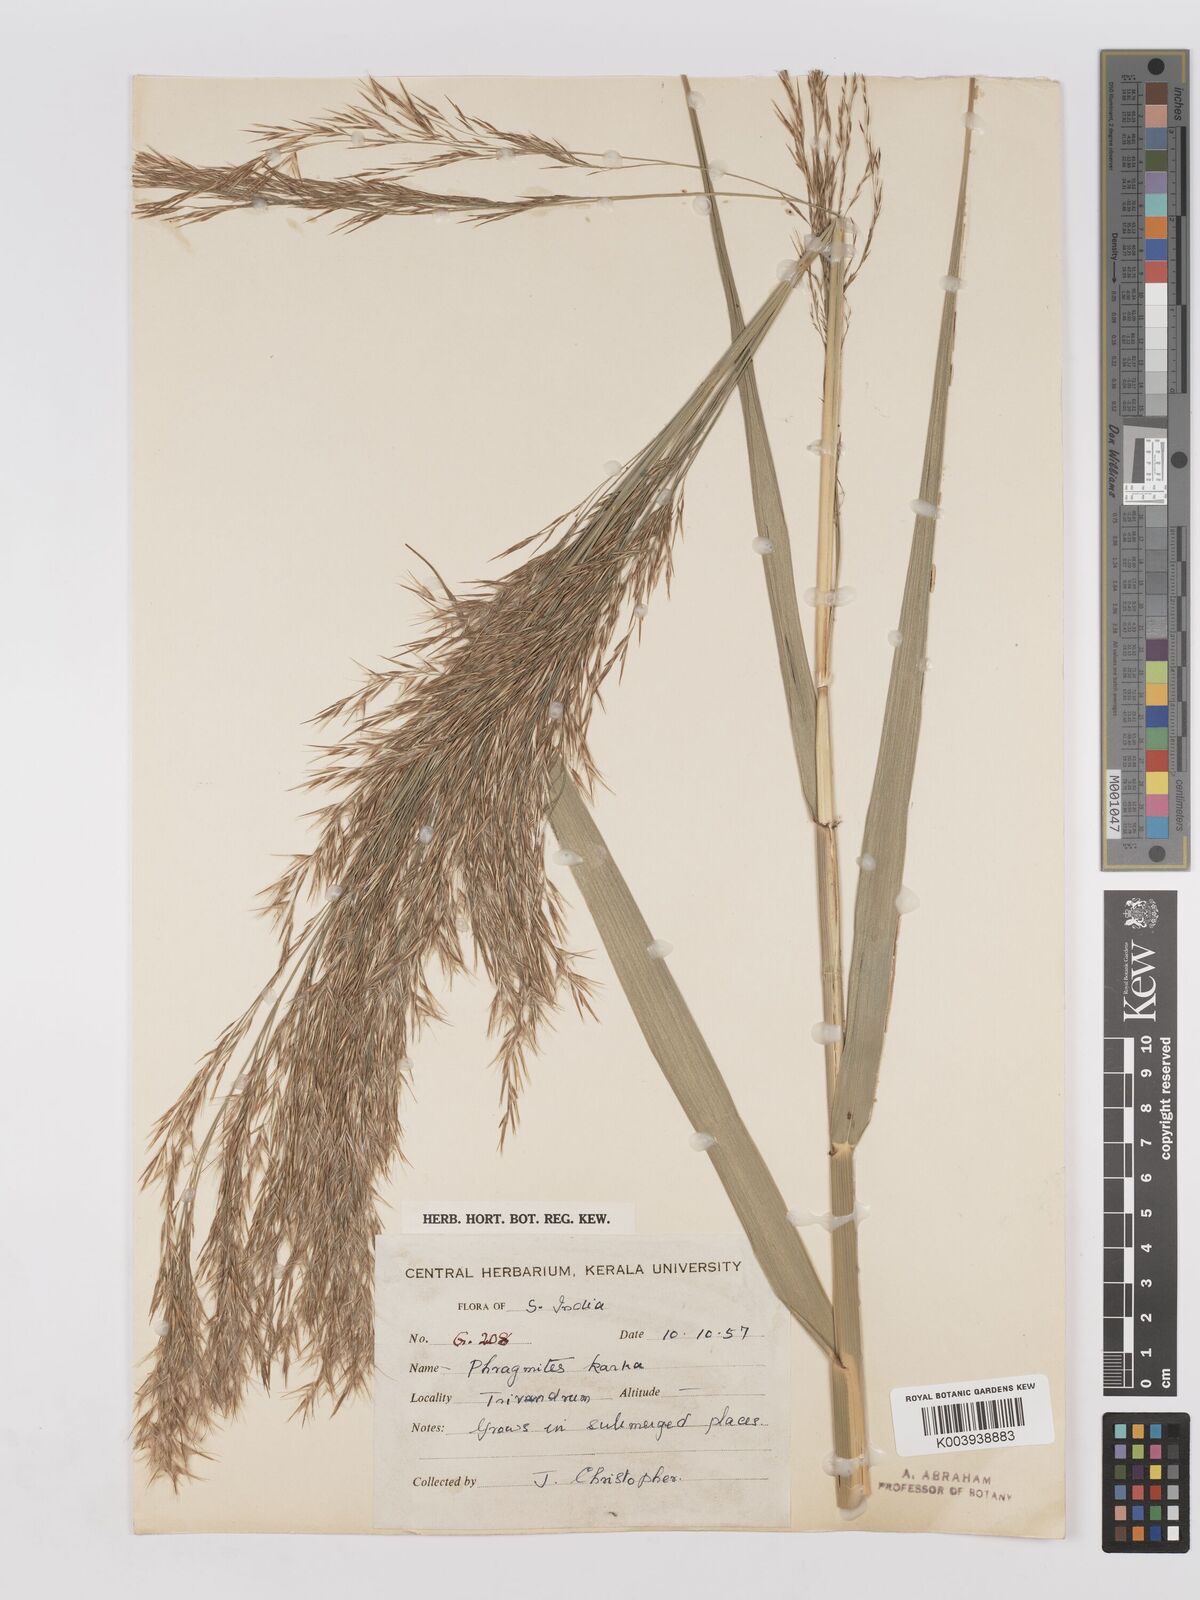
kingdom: Plantae
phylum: Tracheophyta
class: Liliopsida
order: Poales
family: Poaceae
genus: Phragmites
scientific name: Phragmites karka
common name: Tropical reed
